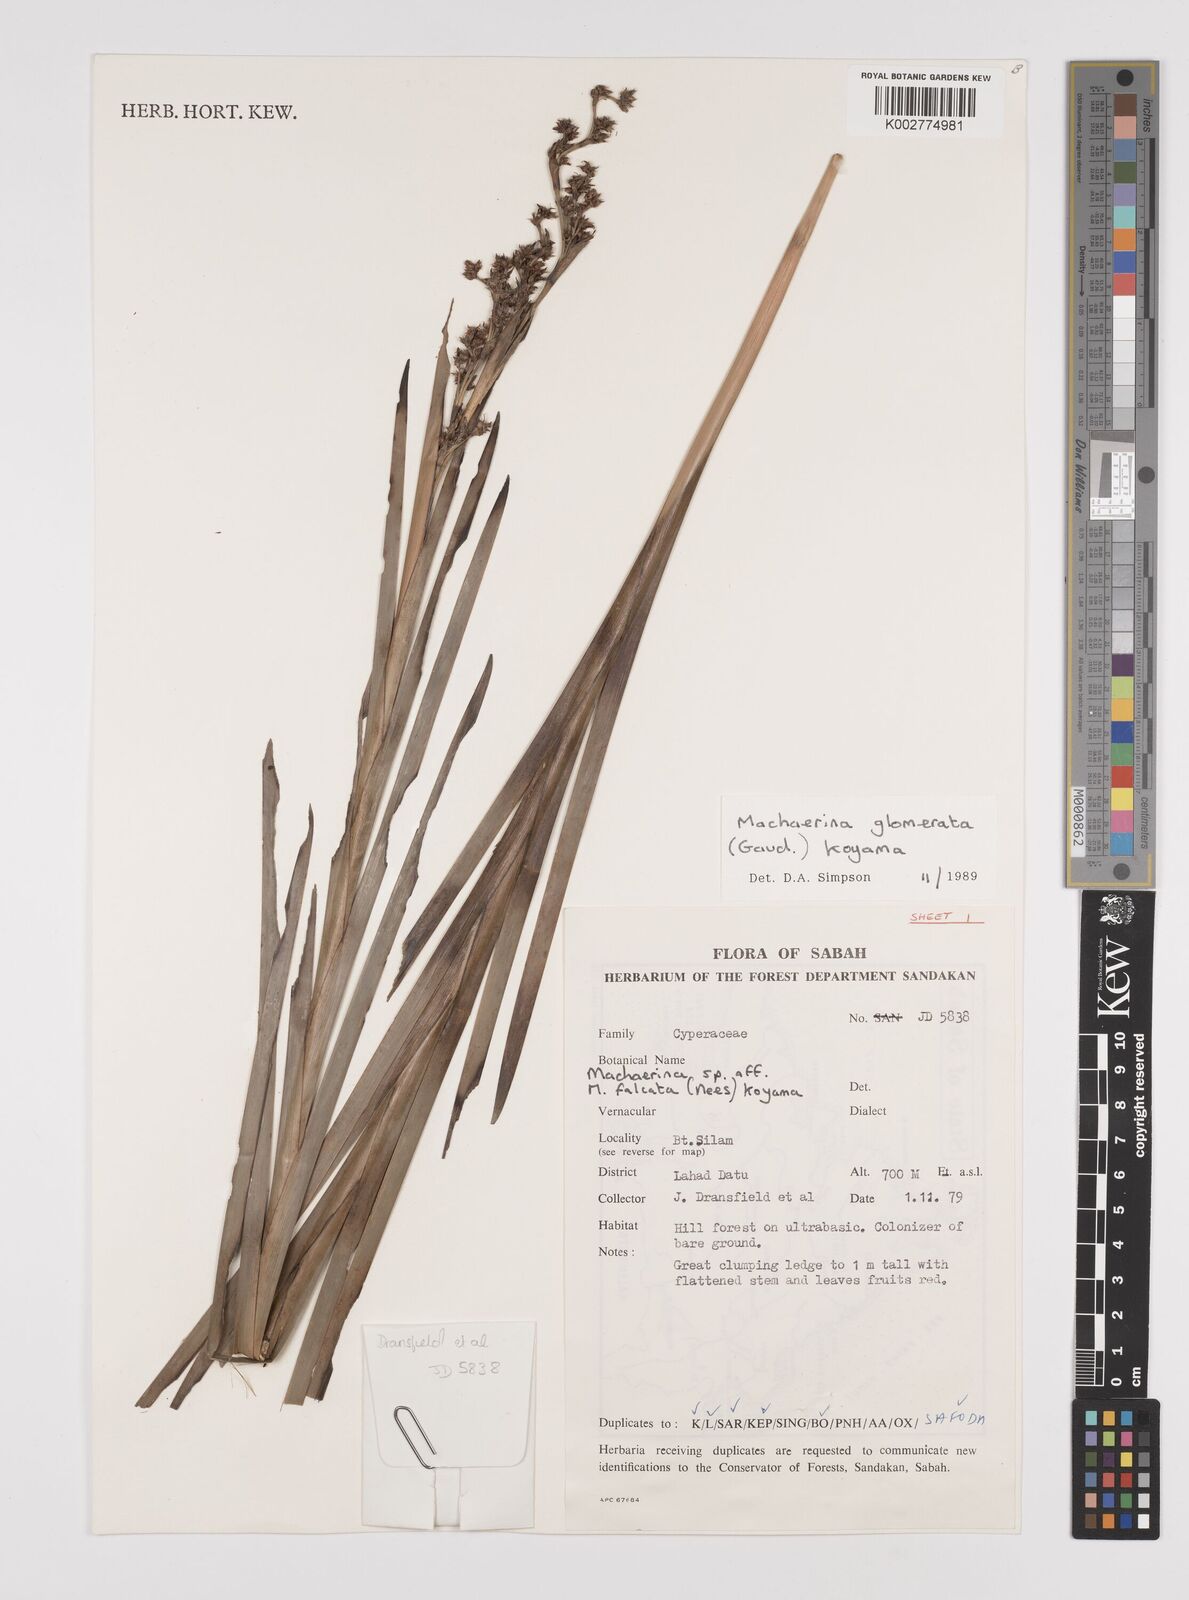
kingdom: Plantae
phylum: Tracheophyta
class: Liliopsida
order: Poales
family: Cyperaceae
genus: Machaerina
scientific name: Machaerina glomerata
